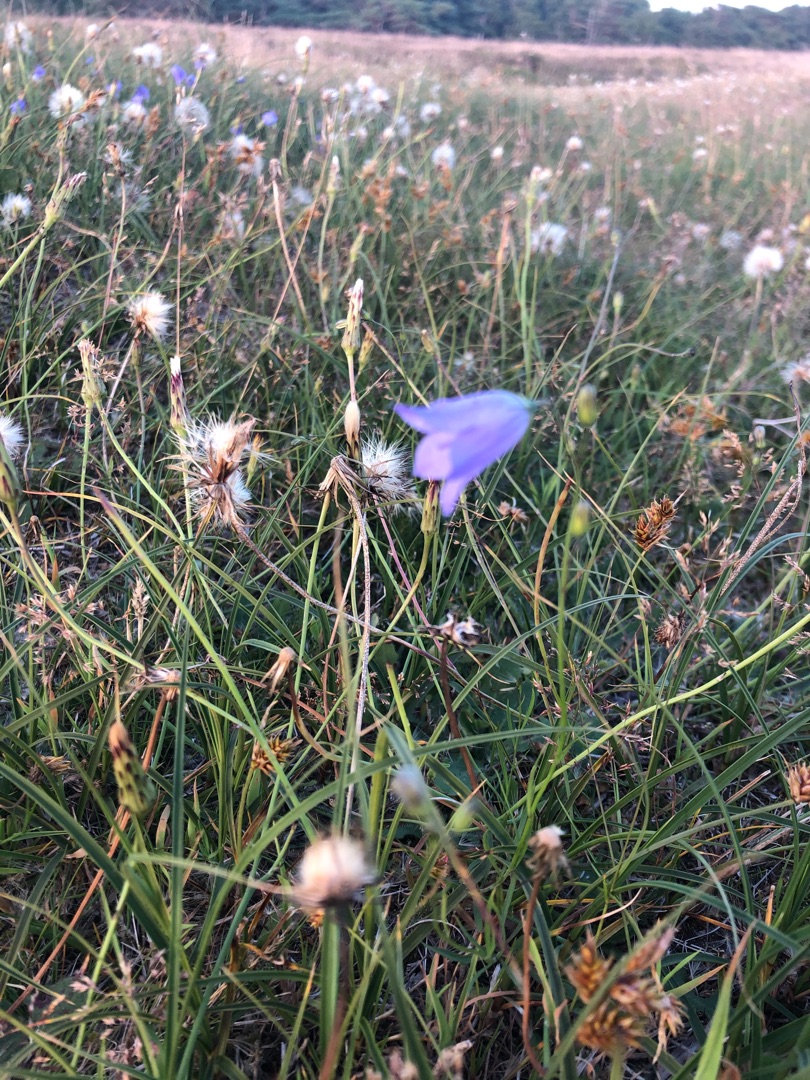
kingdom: Plantae
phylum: Tracheophyta
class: Magnoliopsida
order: Asterales
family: Campanulaceae
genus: Campanula
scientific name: Campanula rotundifolia
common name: Liden klokke
